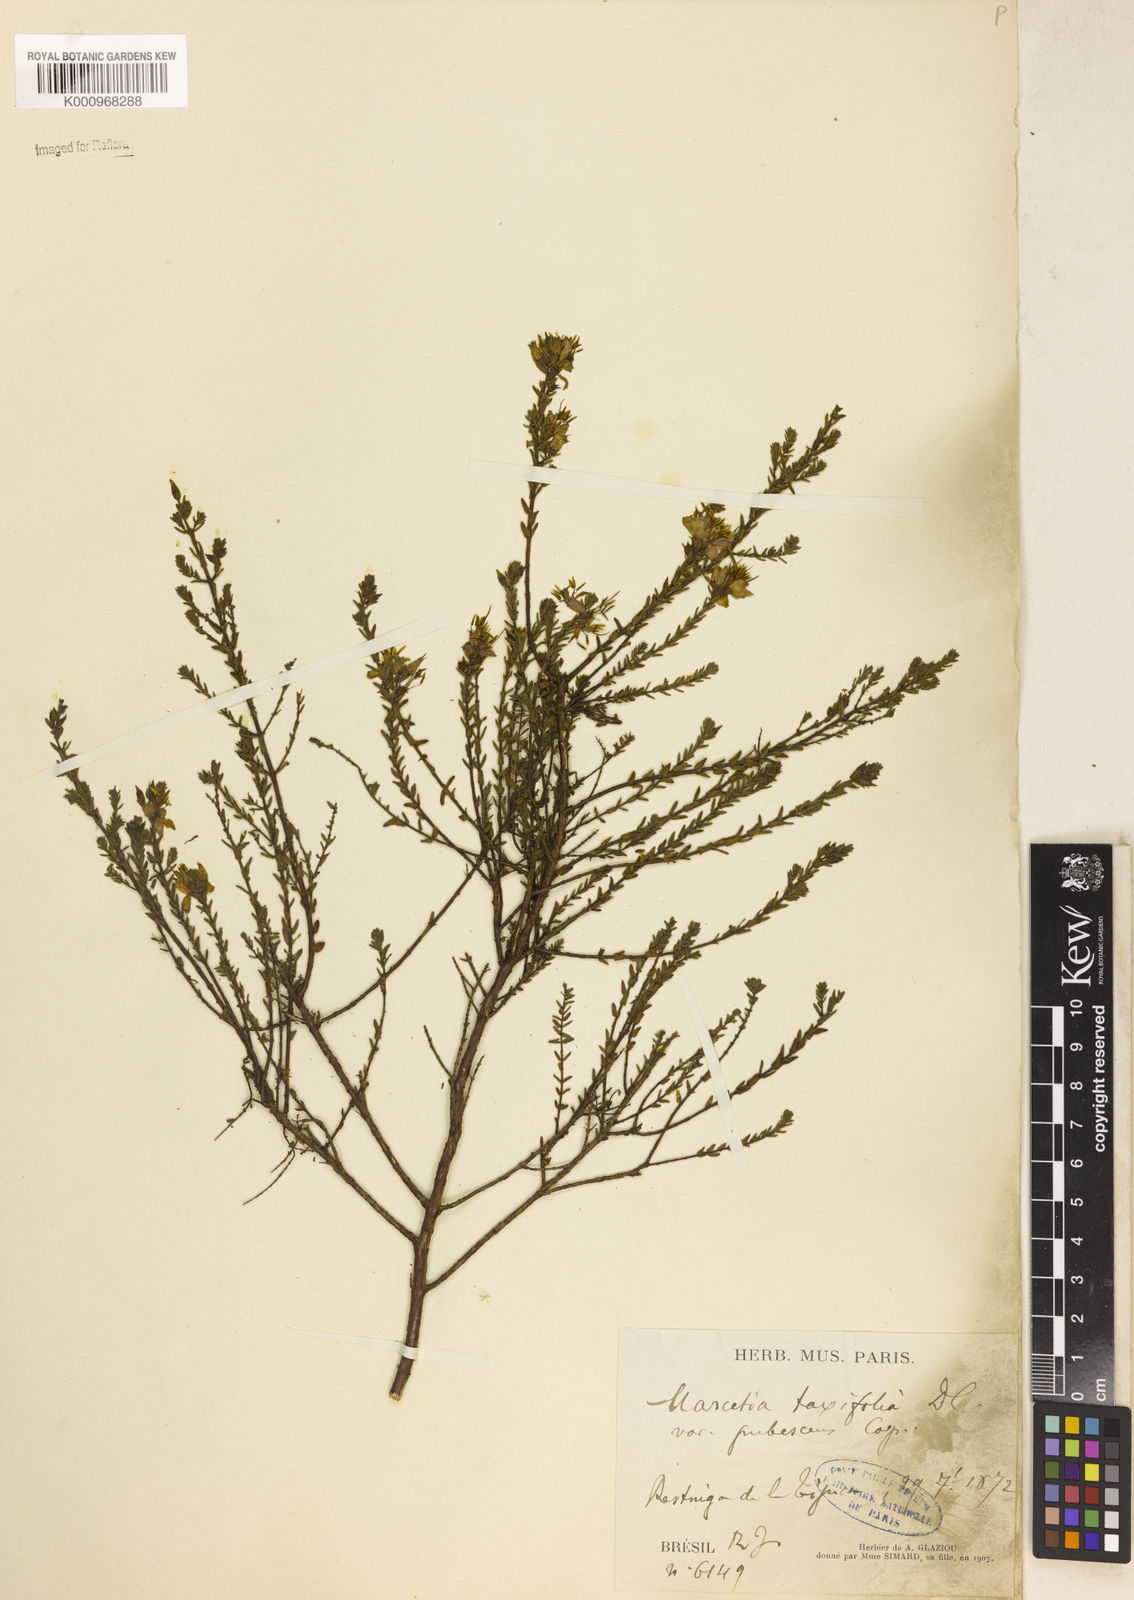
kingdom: Plantae
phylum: Tracheophyta
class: Magnoliopsida
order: Myrtales
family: Melastomataceae
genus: Marcetia
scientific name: Marcetia taxifolia
